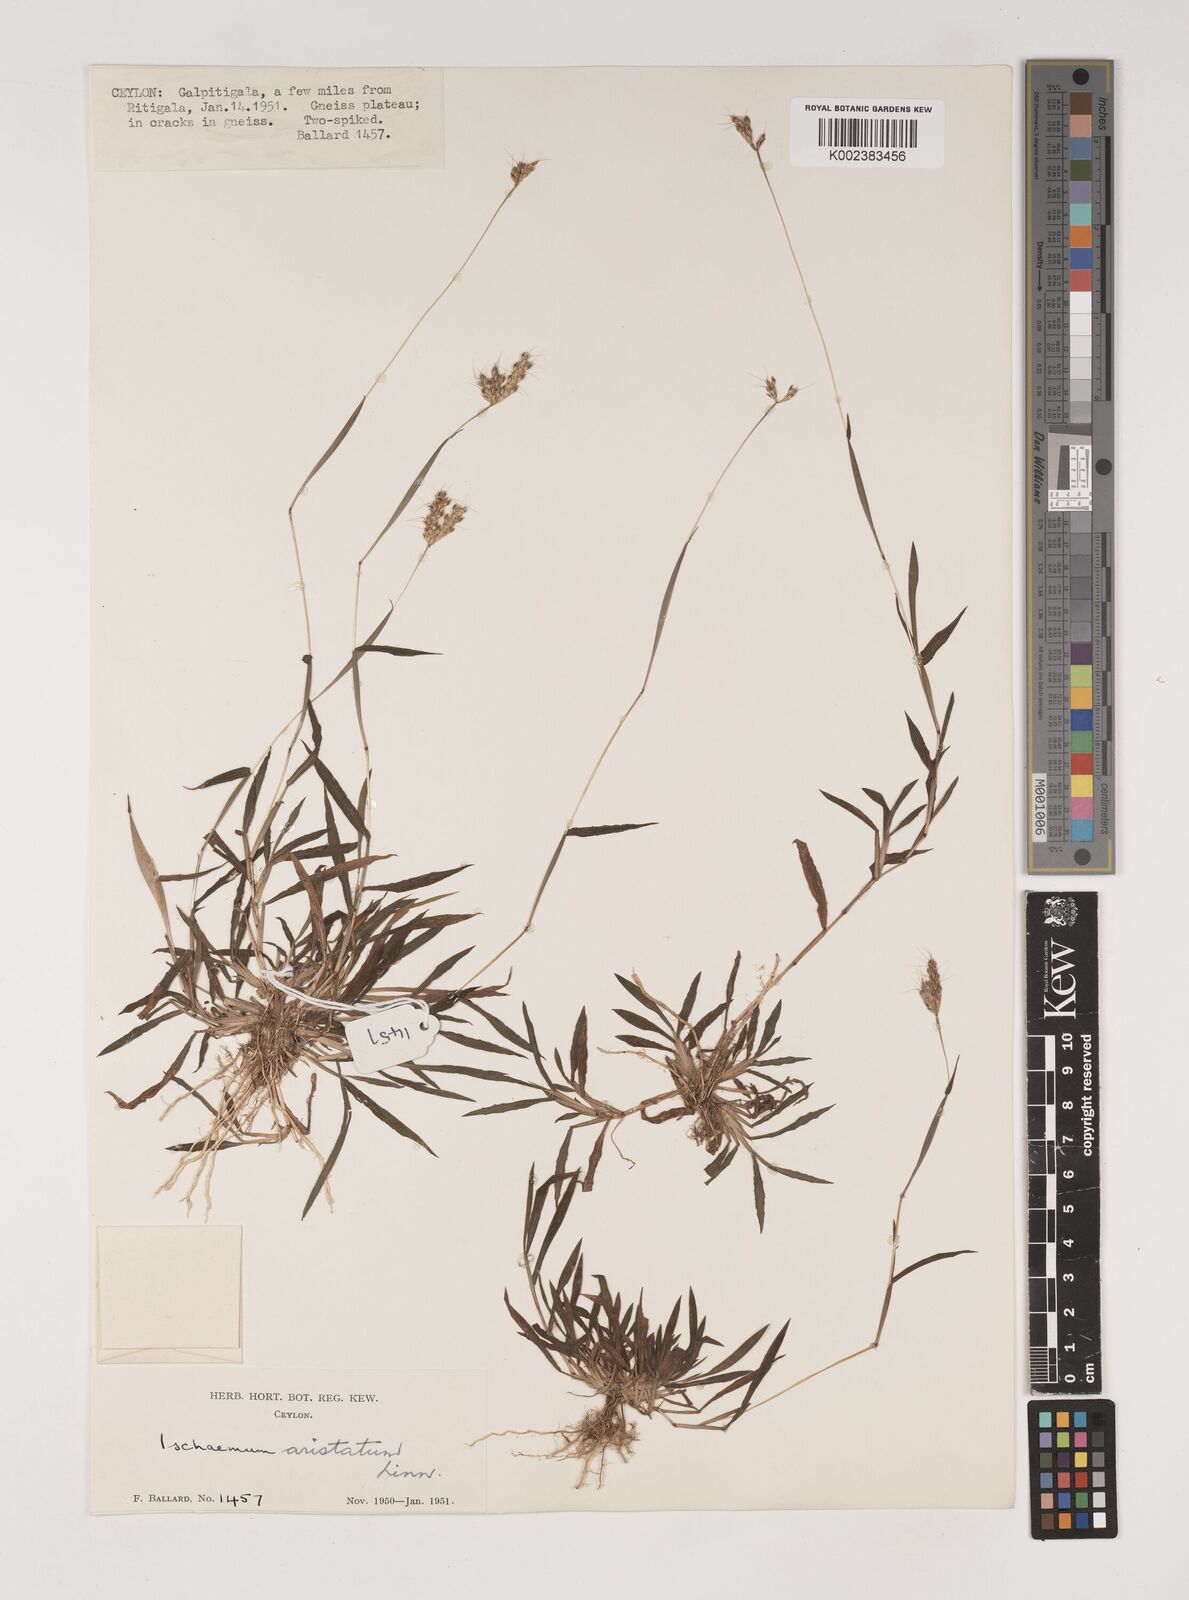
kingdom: Plantae
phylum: Tracheophyta
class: Liliopsida
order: Poales
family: Poaceae
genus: Polytrias
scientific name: Polytrias indica
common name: Indian murainagrass
